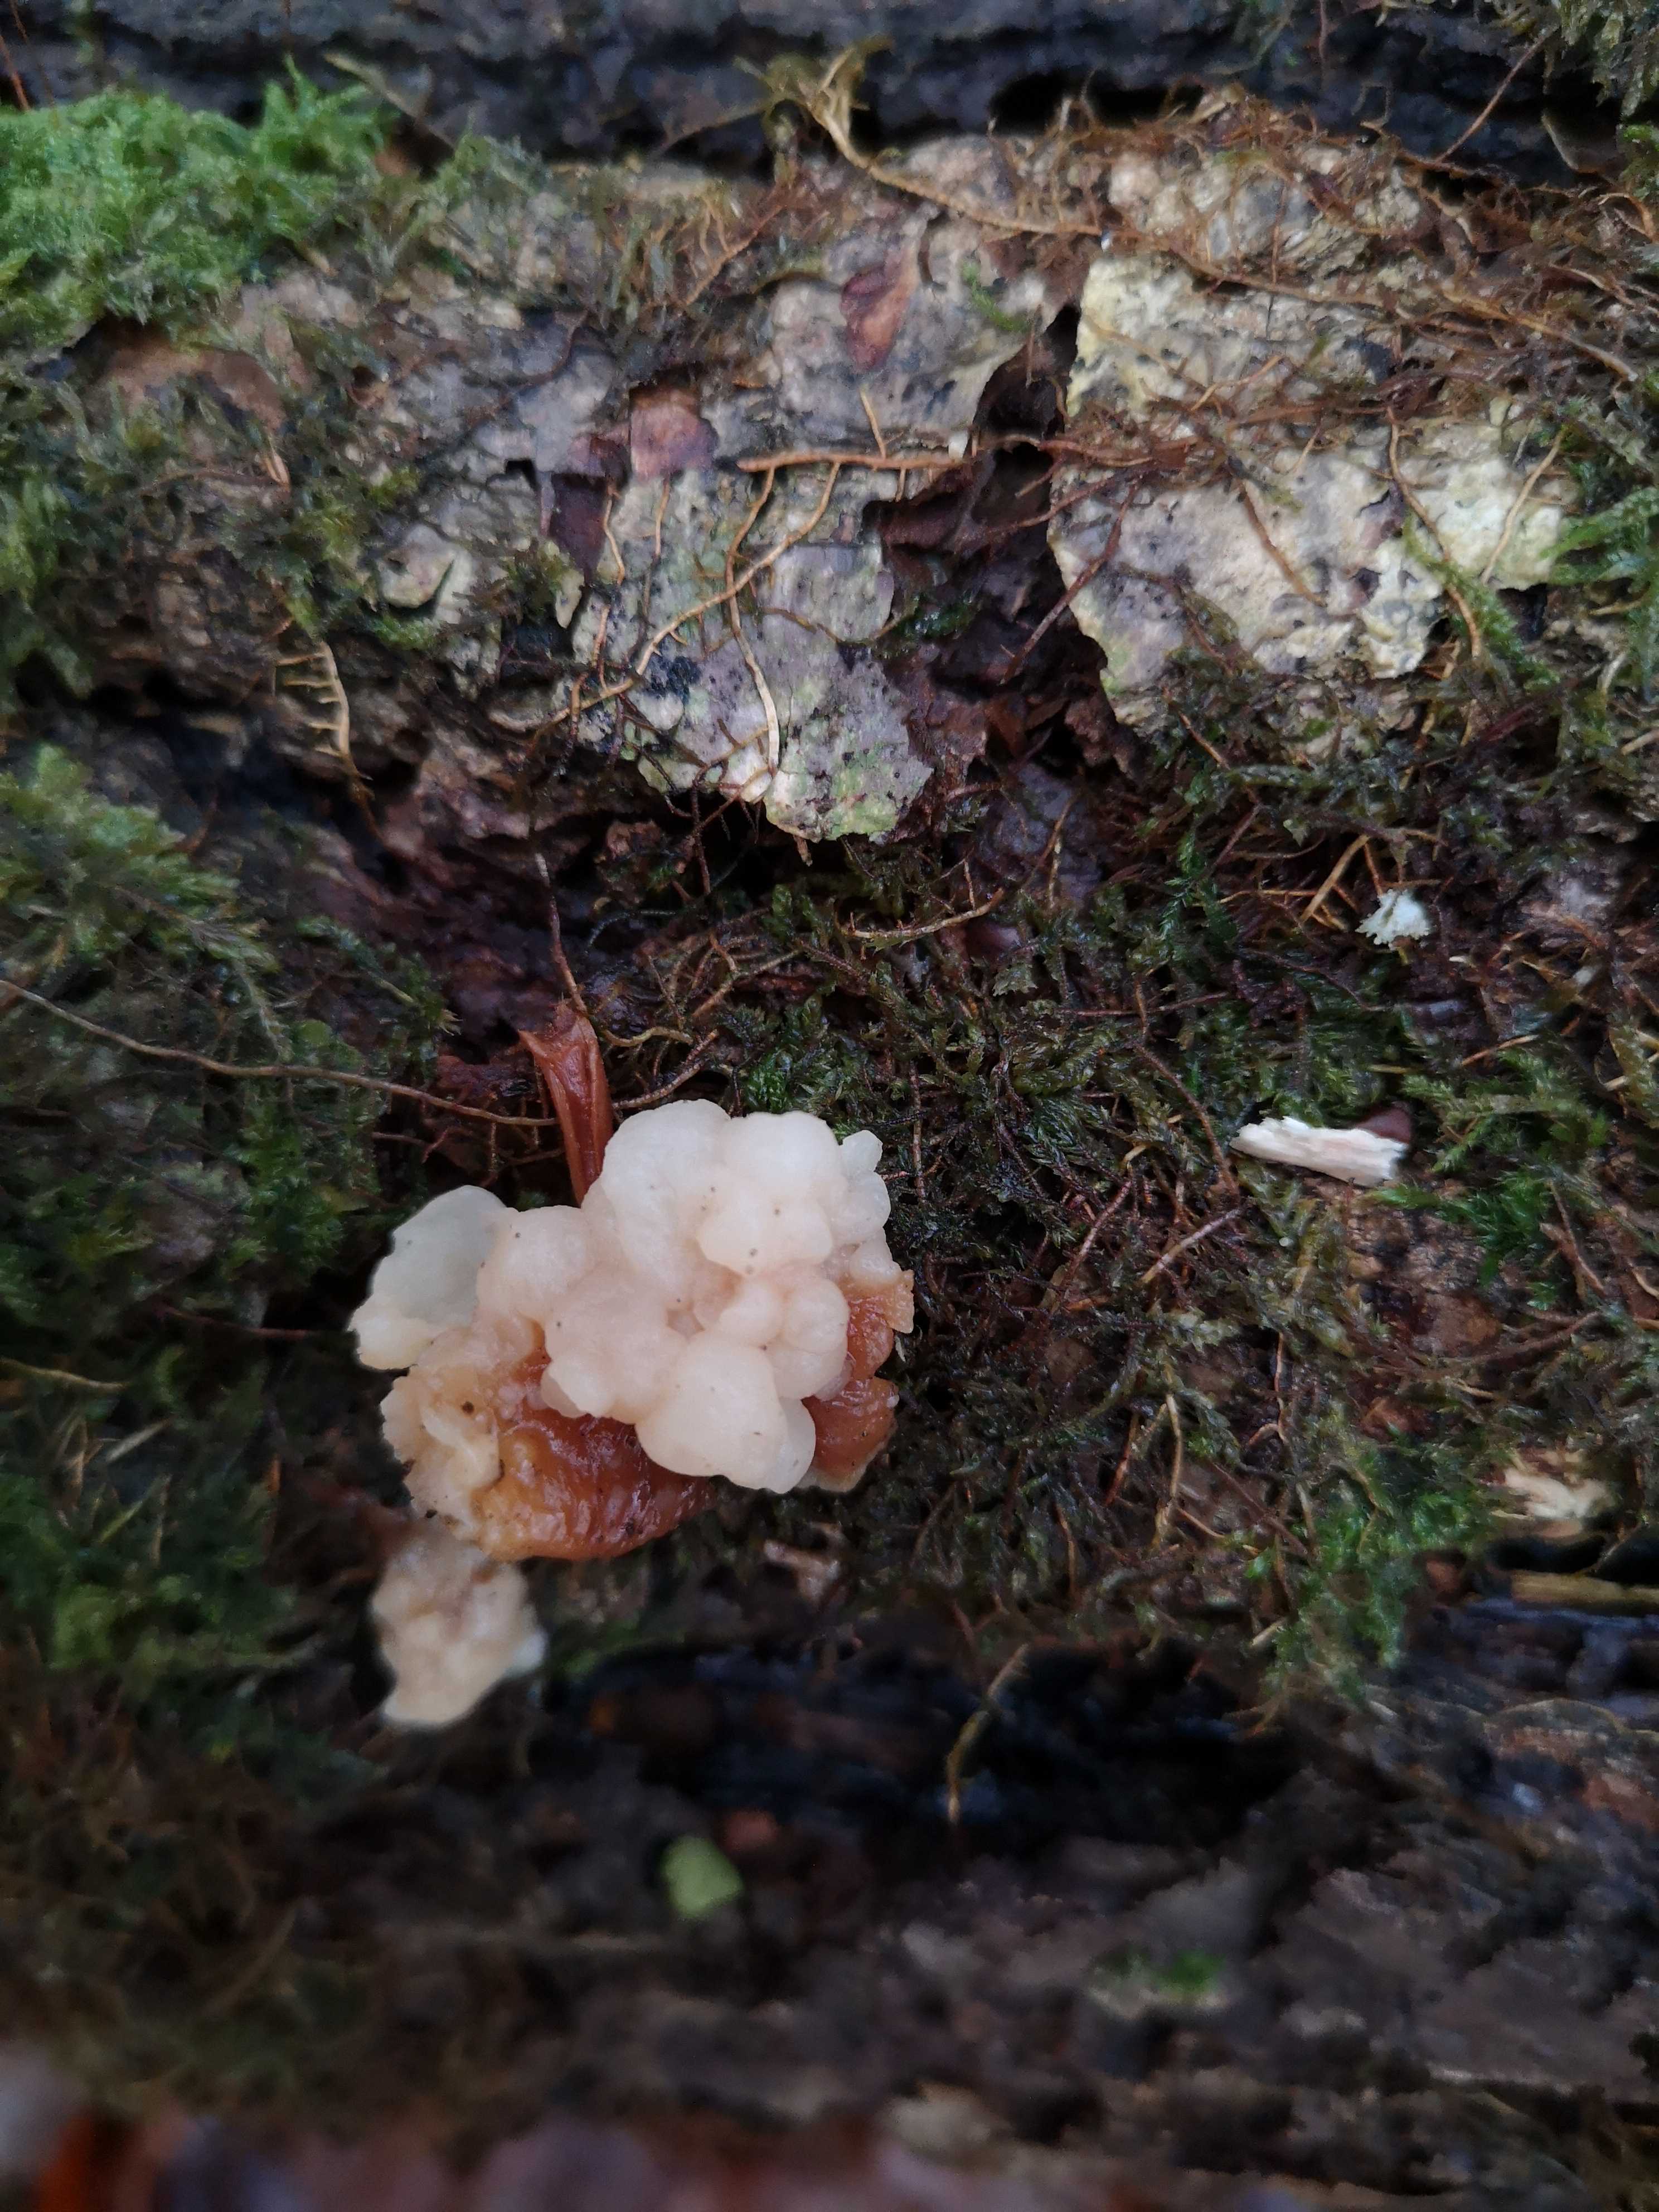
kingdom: Fungi
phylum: Basidiomycota
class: Tremellomycetes
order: Filobasidiales
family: Filobasidiaceae
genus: Syzygospora
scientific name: Syzygospora tumefaciens
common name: fladhatte-snyltehjerne
